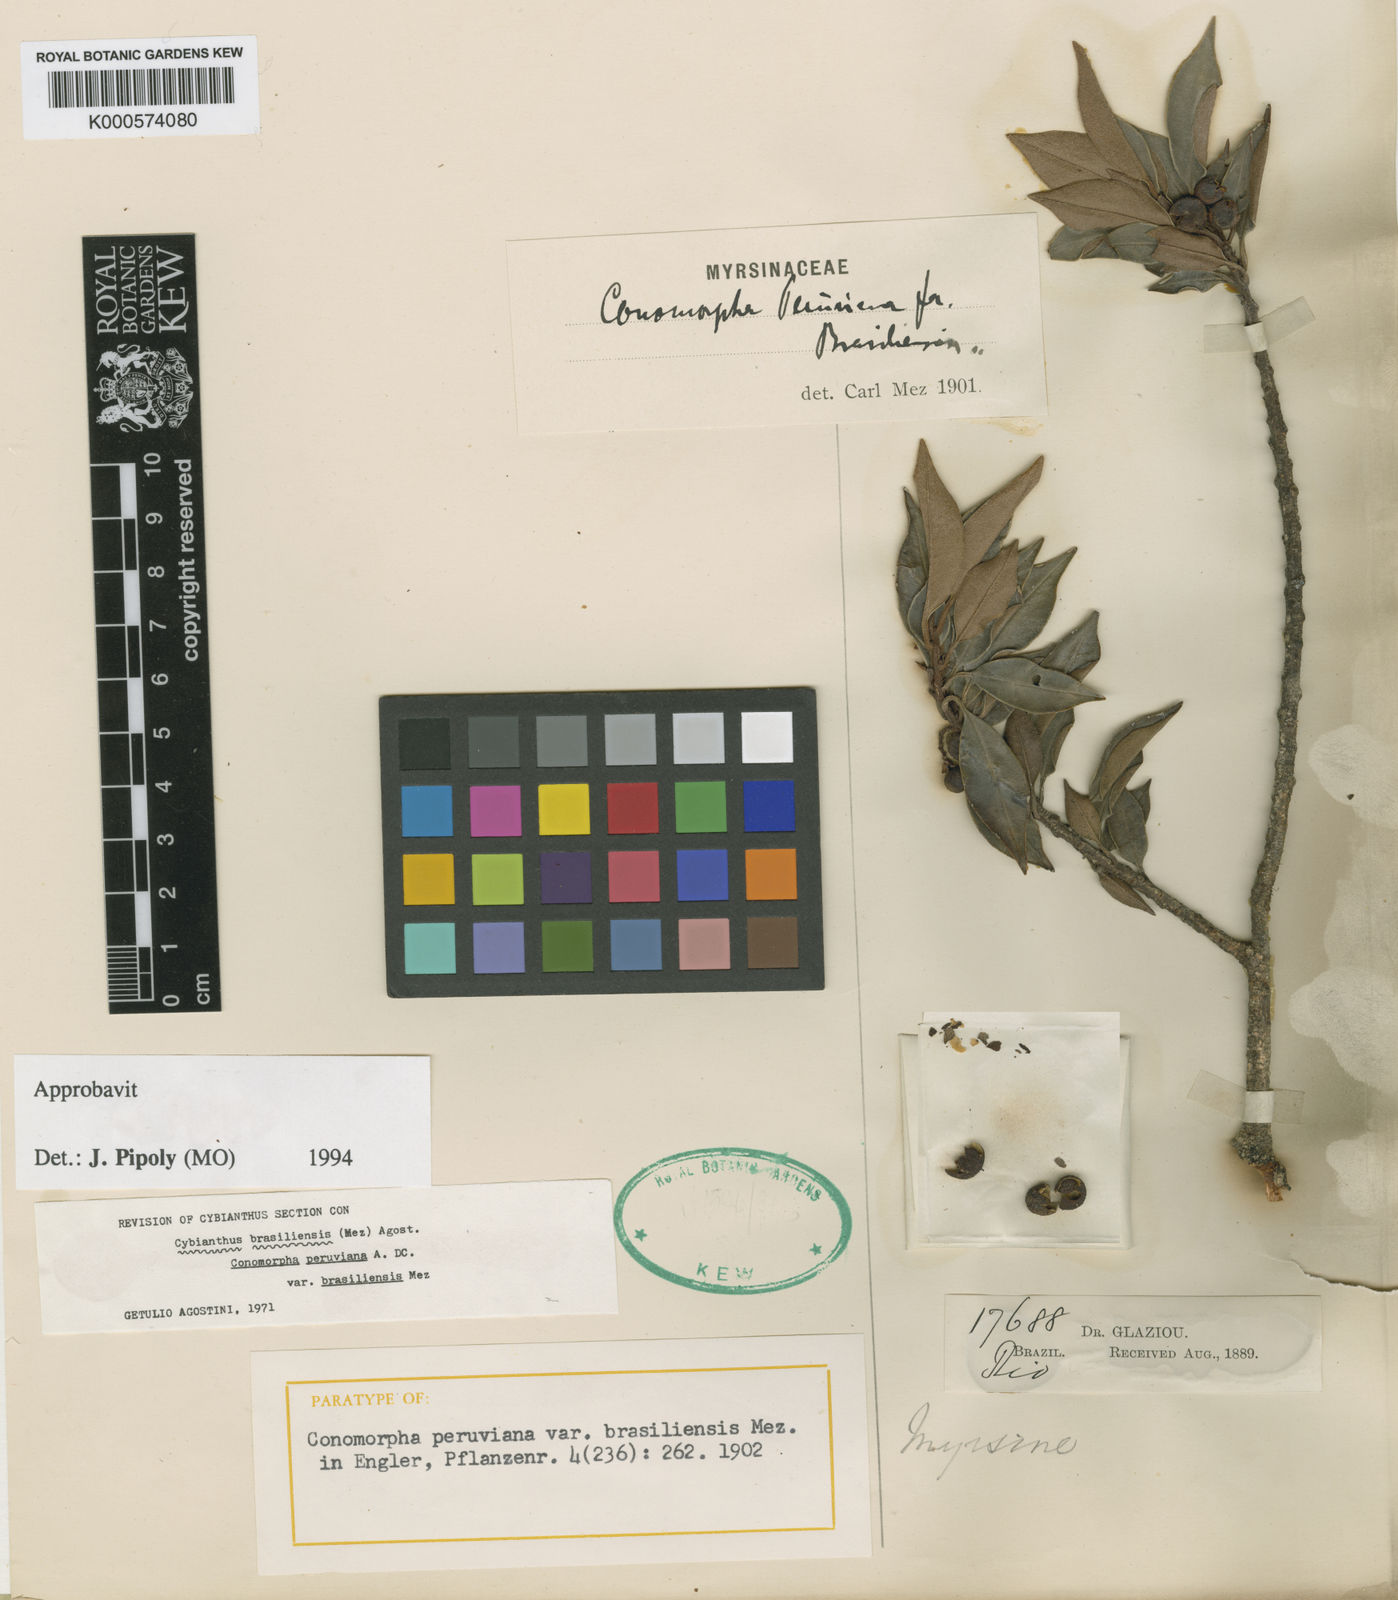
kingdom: Plantae
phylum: Tracheophyta
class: Magnoliopsida
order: Ericales
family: Primulaceae
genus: Cybianthus
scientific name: Cybianthus peruvianus
